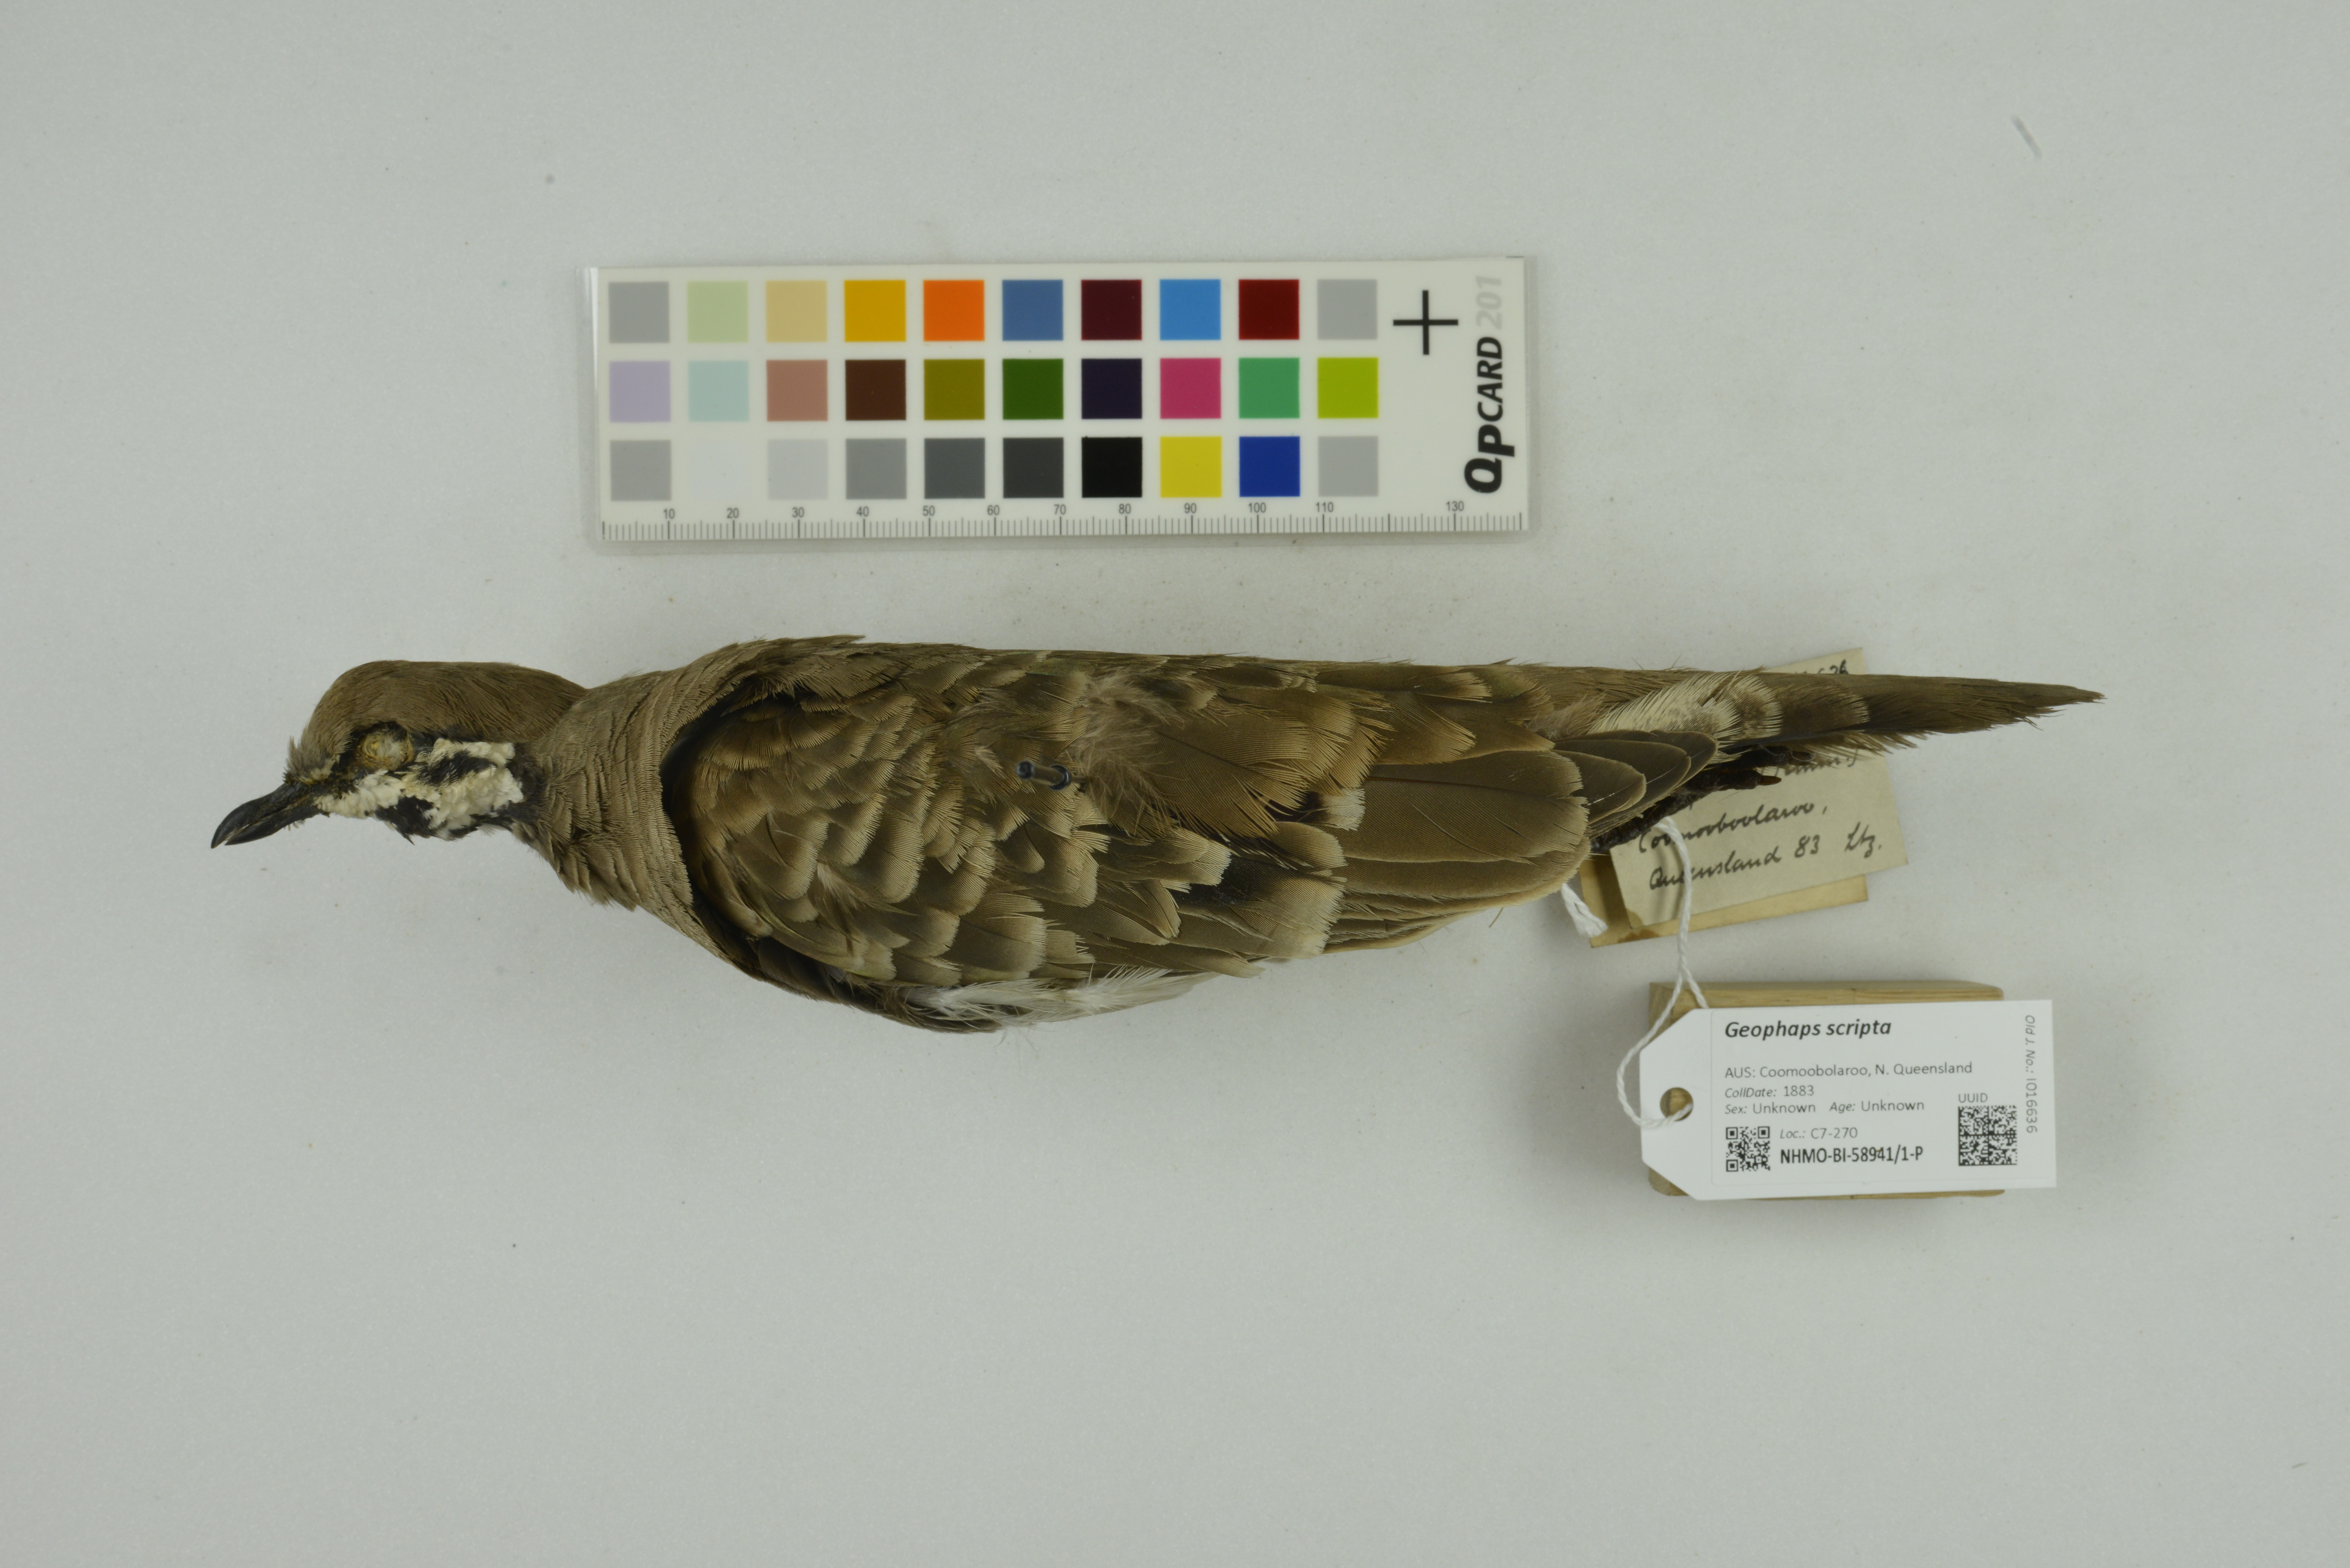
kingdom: Animalia
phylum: Chordata
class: Aves
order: Columbiformes
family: Columbidae
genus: Geophaps
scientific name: Geophaps scripta
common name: Squatter pigeon
